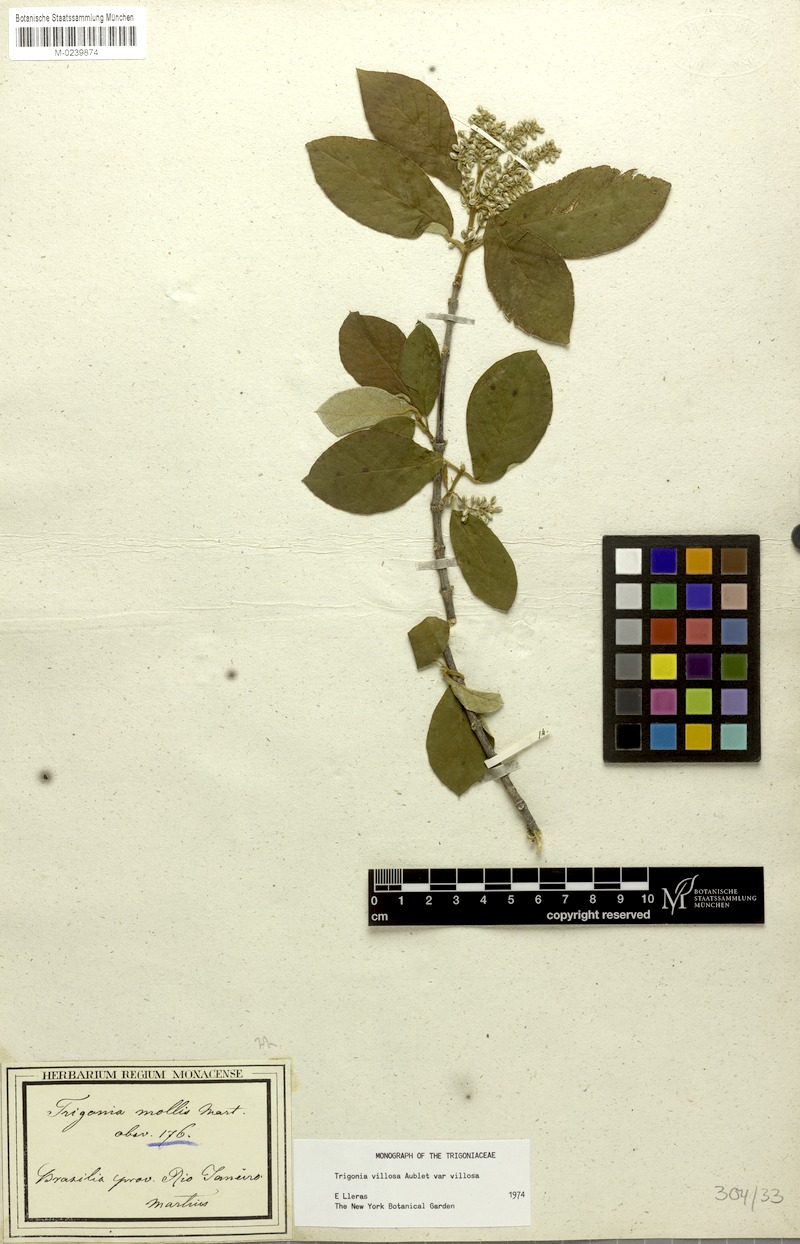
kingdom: Plantae
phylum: Tracheophyta
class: Magnoliopsida
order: Malpighiales
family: Trigoniaceae
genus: Trigonia
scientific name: Trigonia villosa
